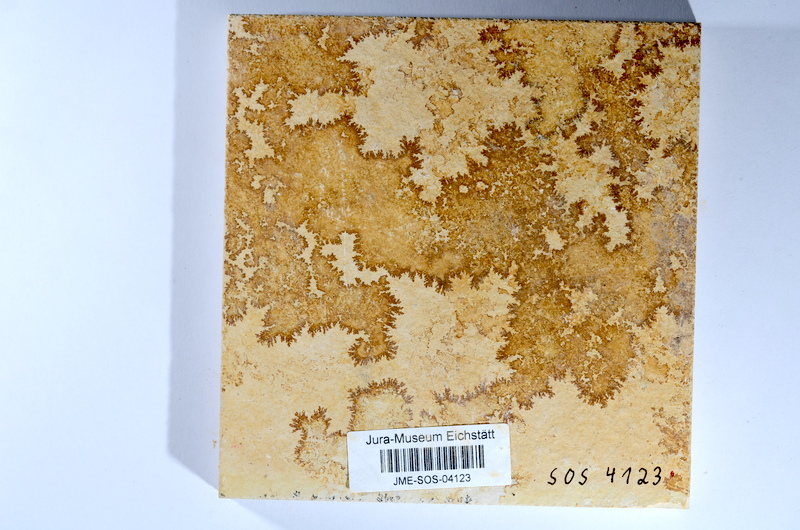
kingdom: Animalia
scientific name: Animalia
